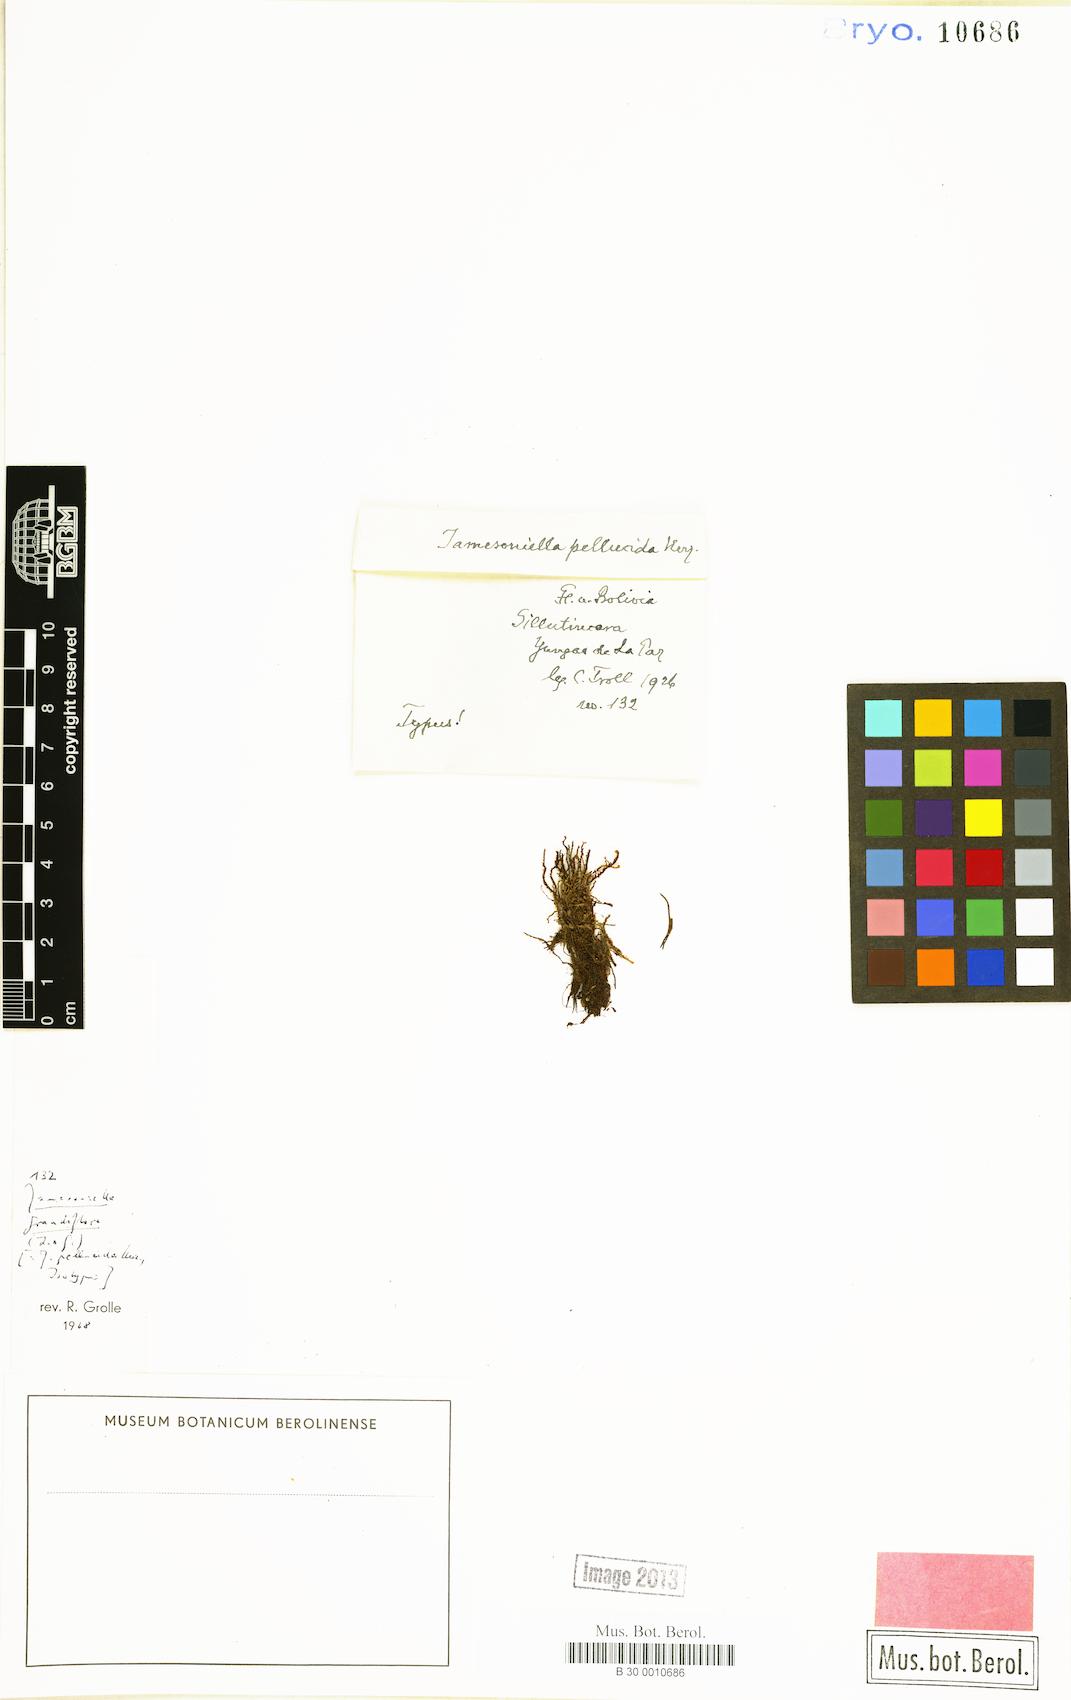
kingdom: Plantae
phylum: Marchantiophyta
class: Jungermanniopsida
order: Jungermanniales
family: Adelanthaceae
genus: Syzygiella
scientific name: Syzygiella sonderi
